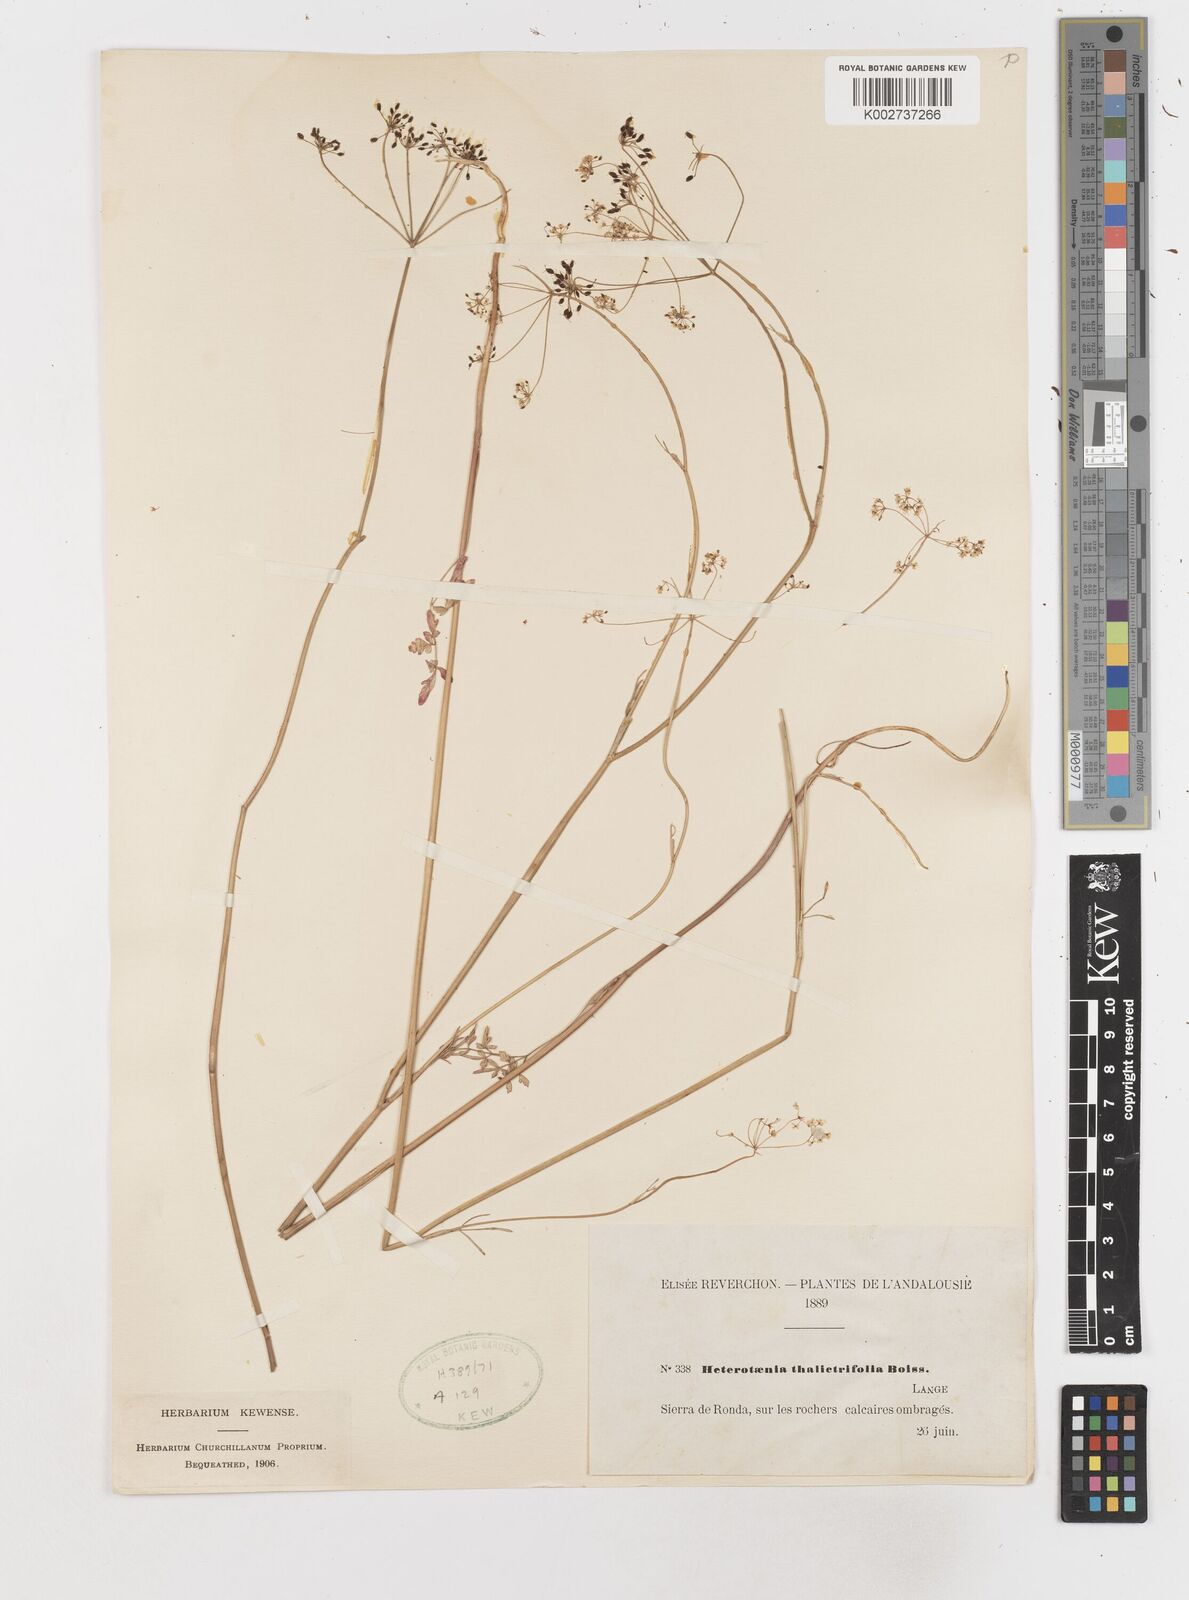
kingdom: Plantae
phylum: Tracheophyta
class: Magnoliopsida
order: Apiales
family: Apiaceae
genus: Conopodium
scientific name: Conopodium thalictrifolium
